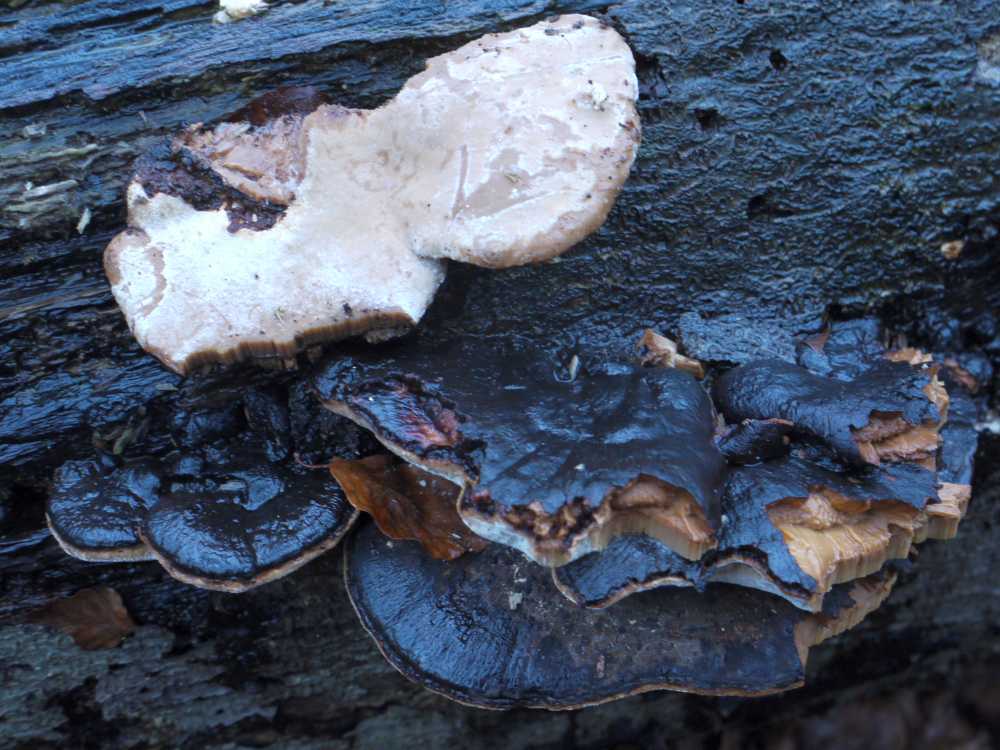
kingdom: Fungi
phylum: Basidiomycota
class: Agaricomycetes
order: Polyporales
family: Ischnodermataceae
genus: Ischnoderma
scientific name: Ischnoderma resinosum
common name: løv-tjæreporesvamp
